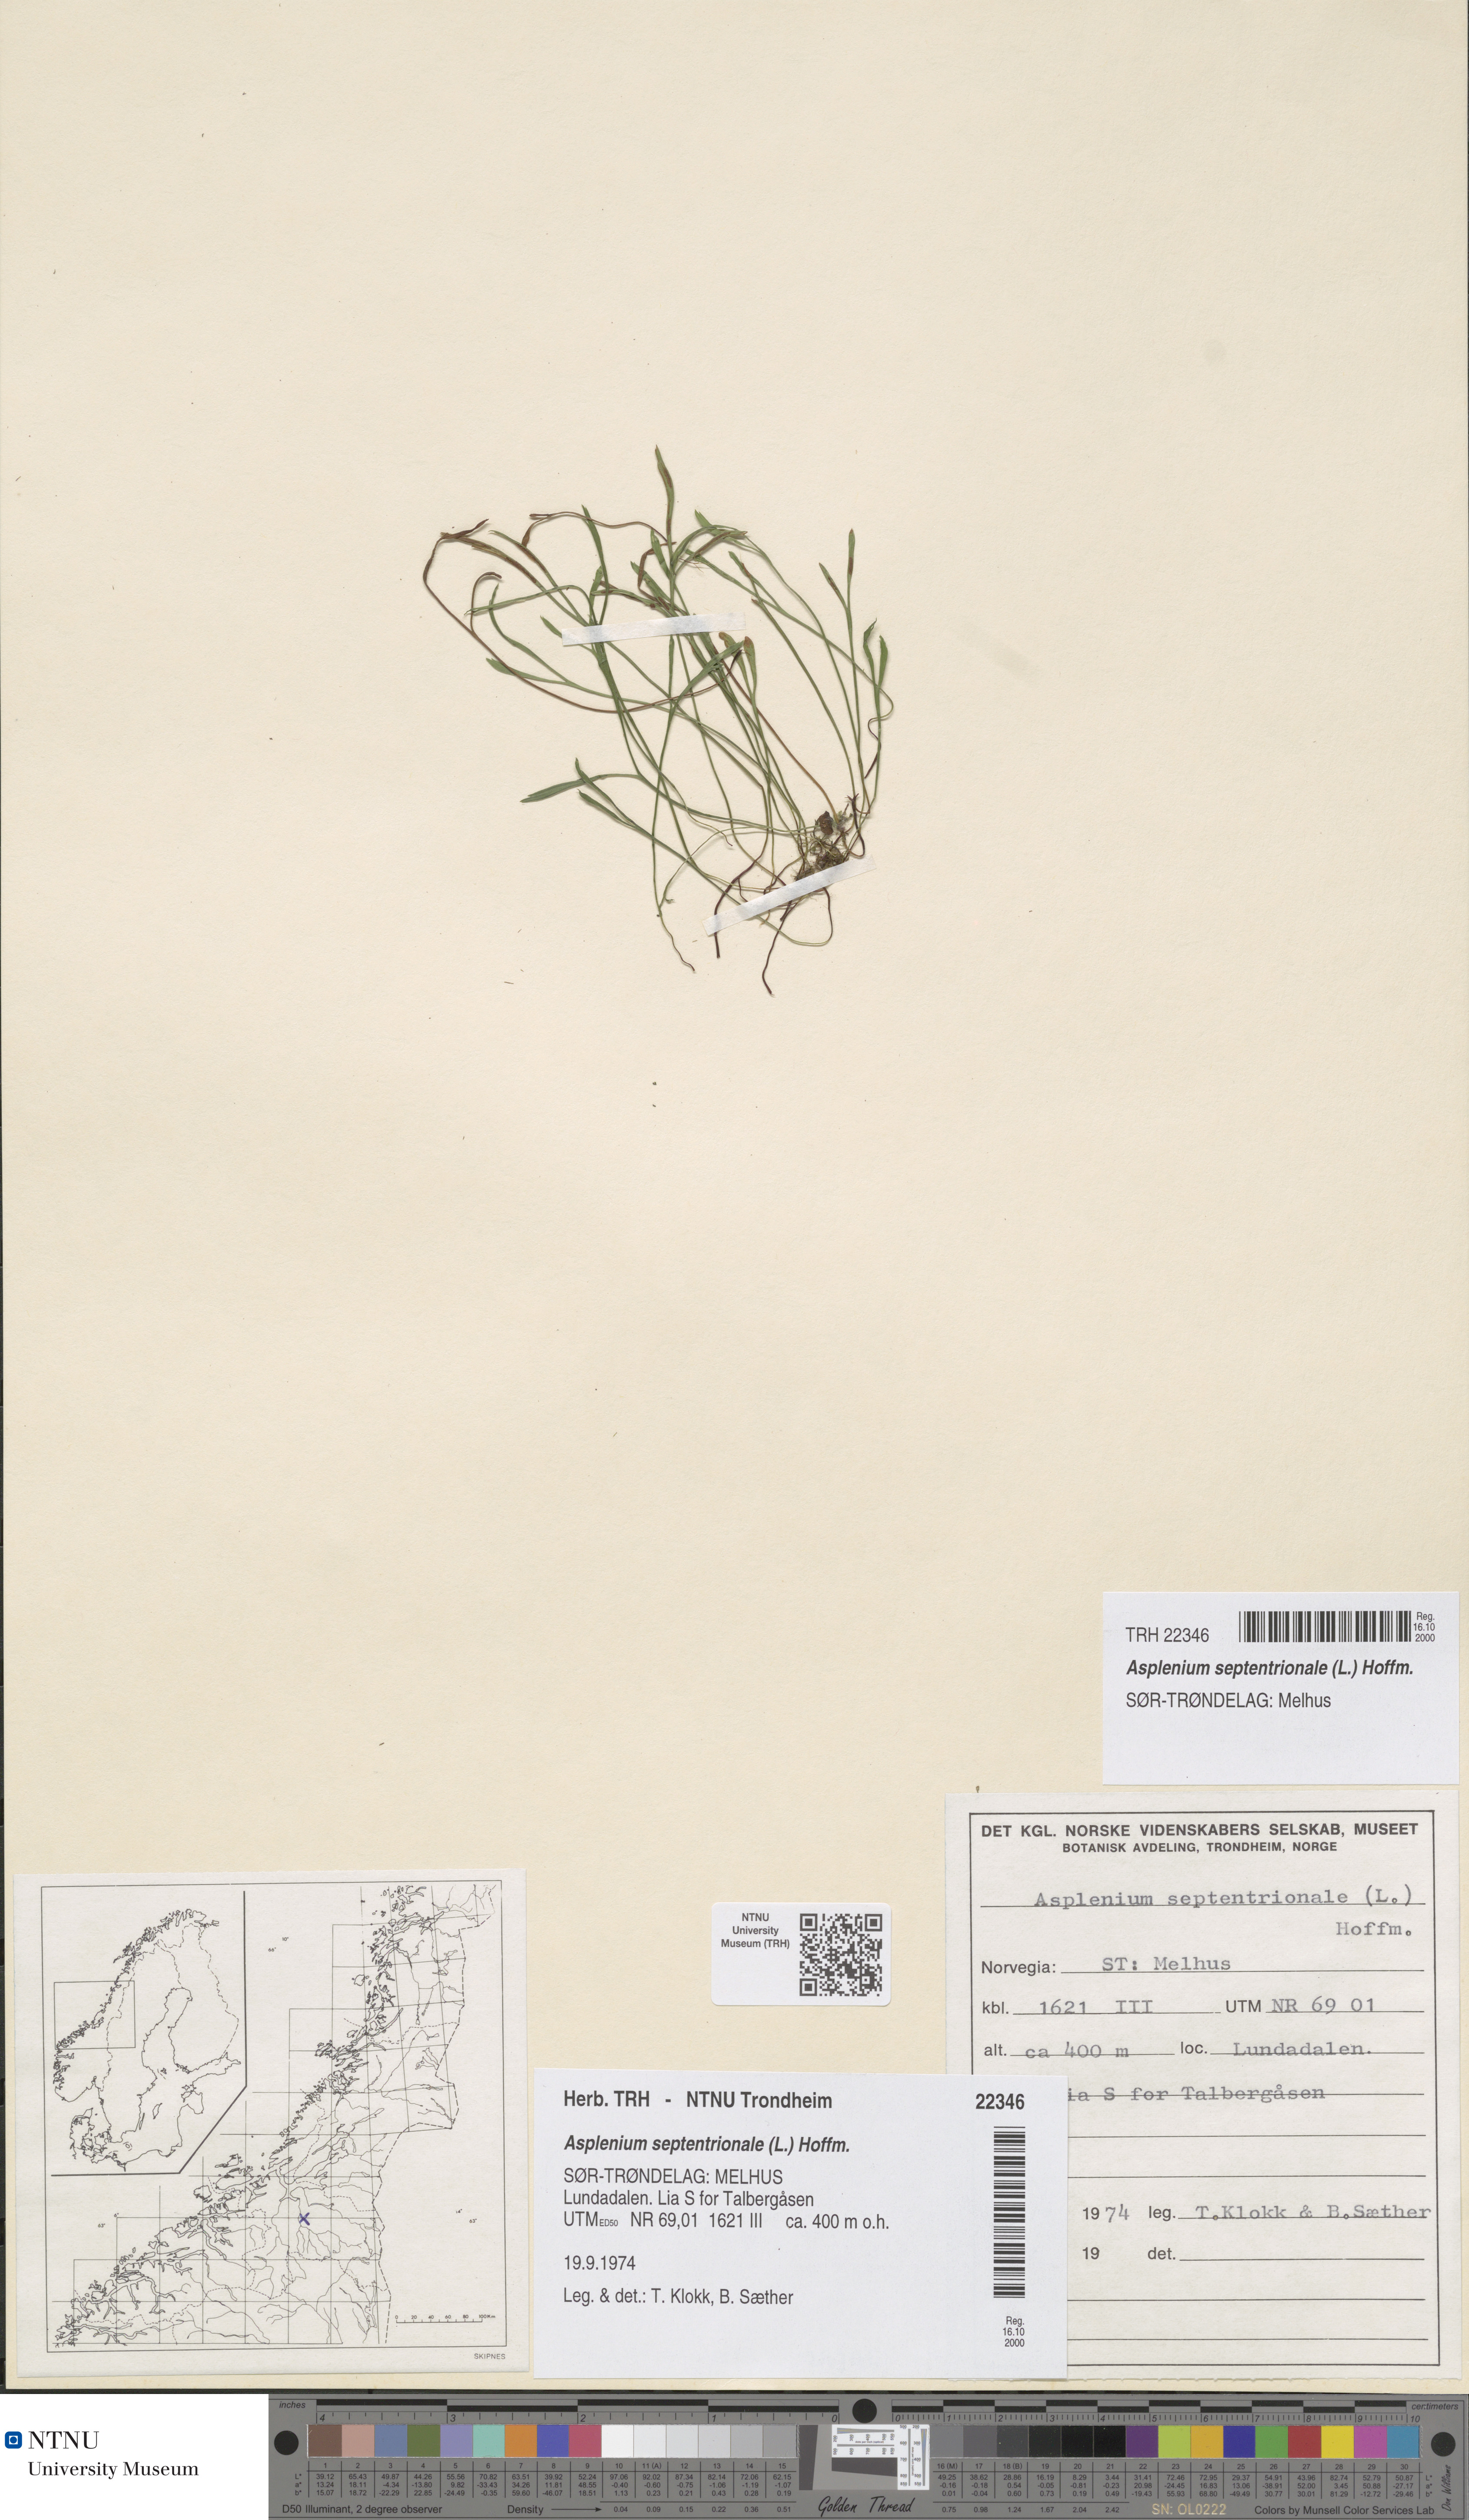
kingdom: Plantae
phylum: Tracheophyta
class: Polypodiopsida
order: Polypodiales
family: Aspleniaceae
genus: Asplenium
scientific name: Asplenium septentrionale
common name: Forked spleenwort
